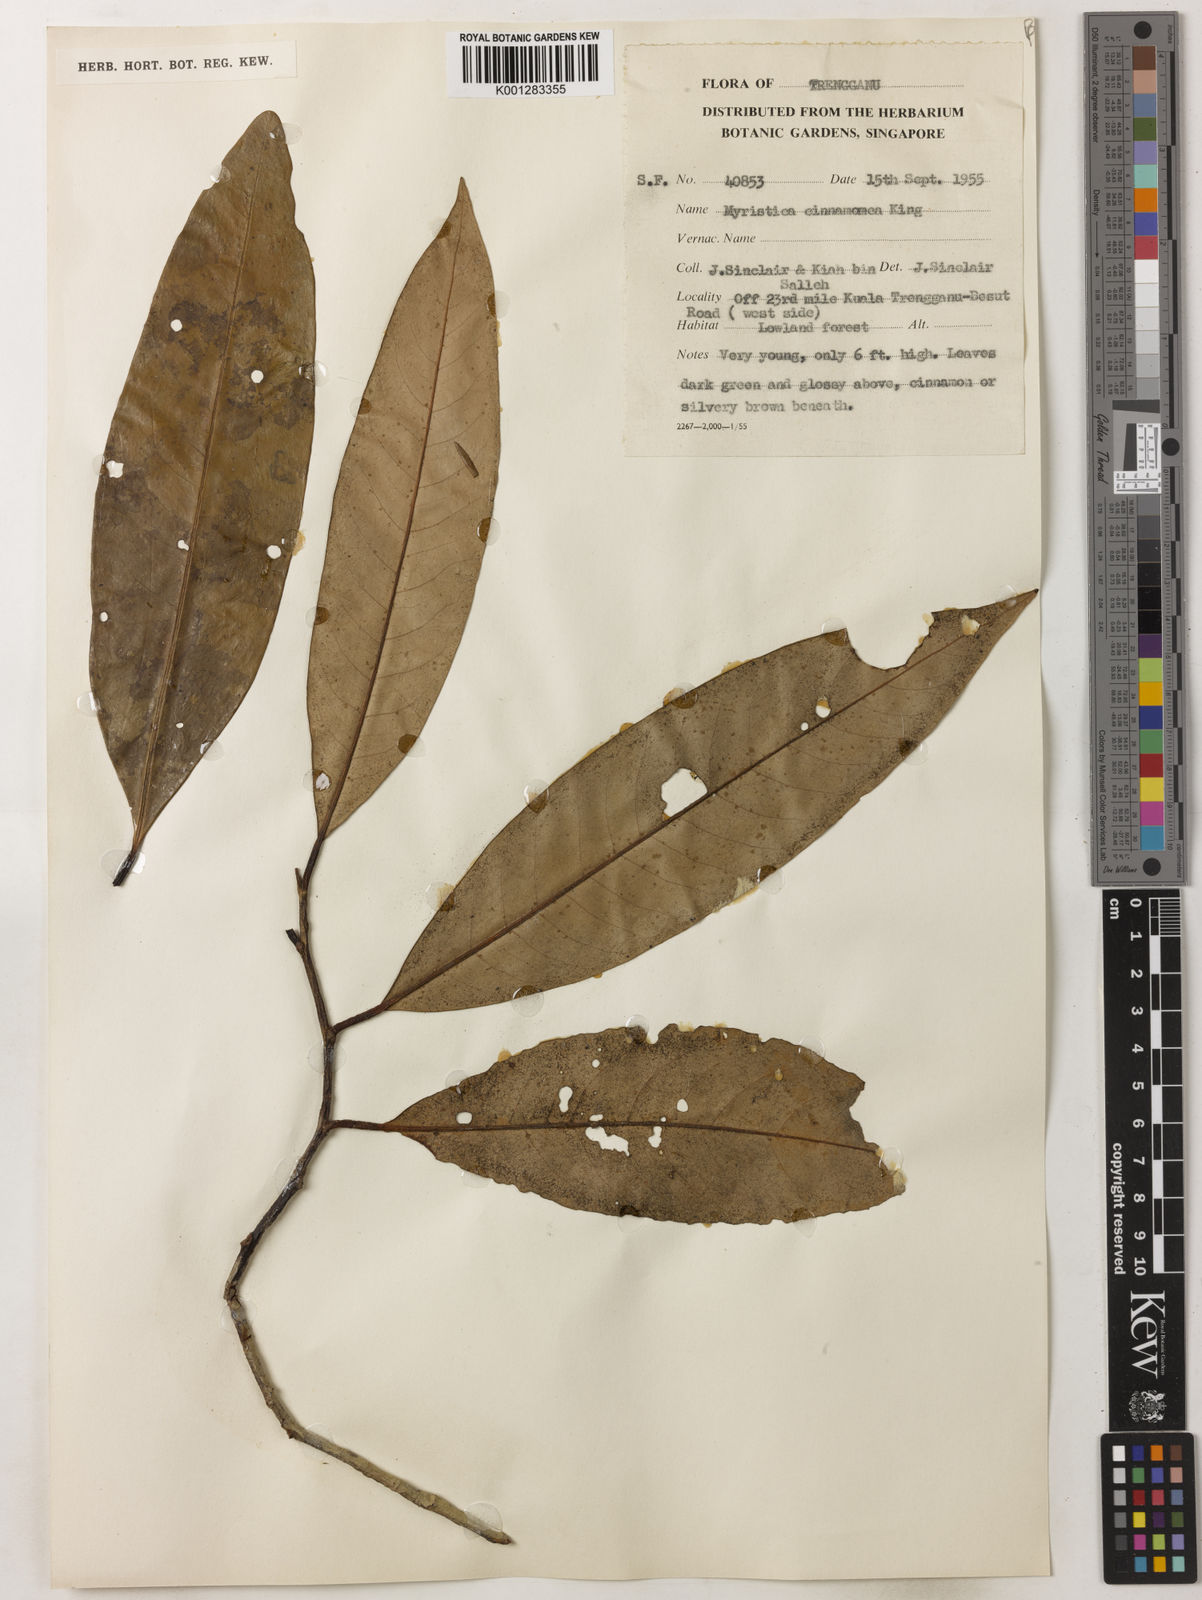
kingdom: Plantae
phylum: Tracheophyta
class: Magnoliopsida
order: Magnoliales
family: Myristicaceae
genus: Myristica
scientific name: Myristica cinnamomea
